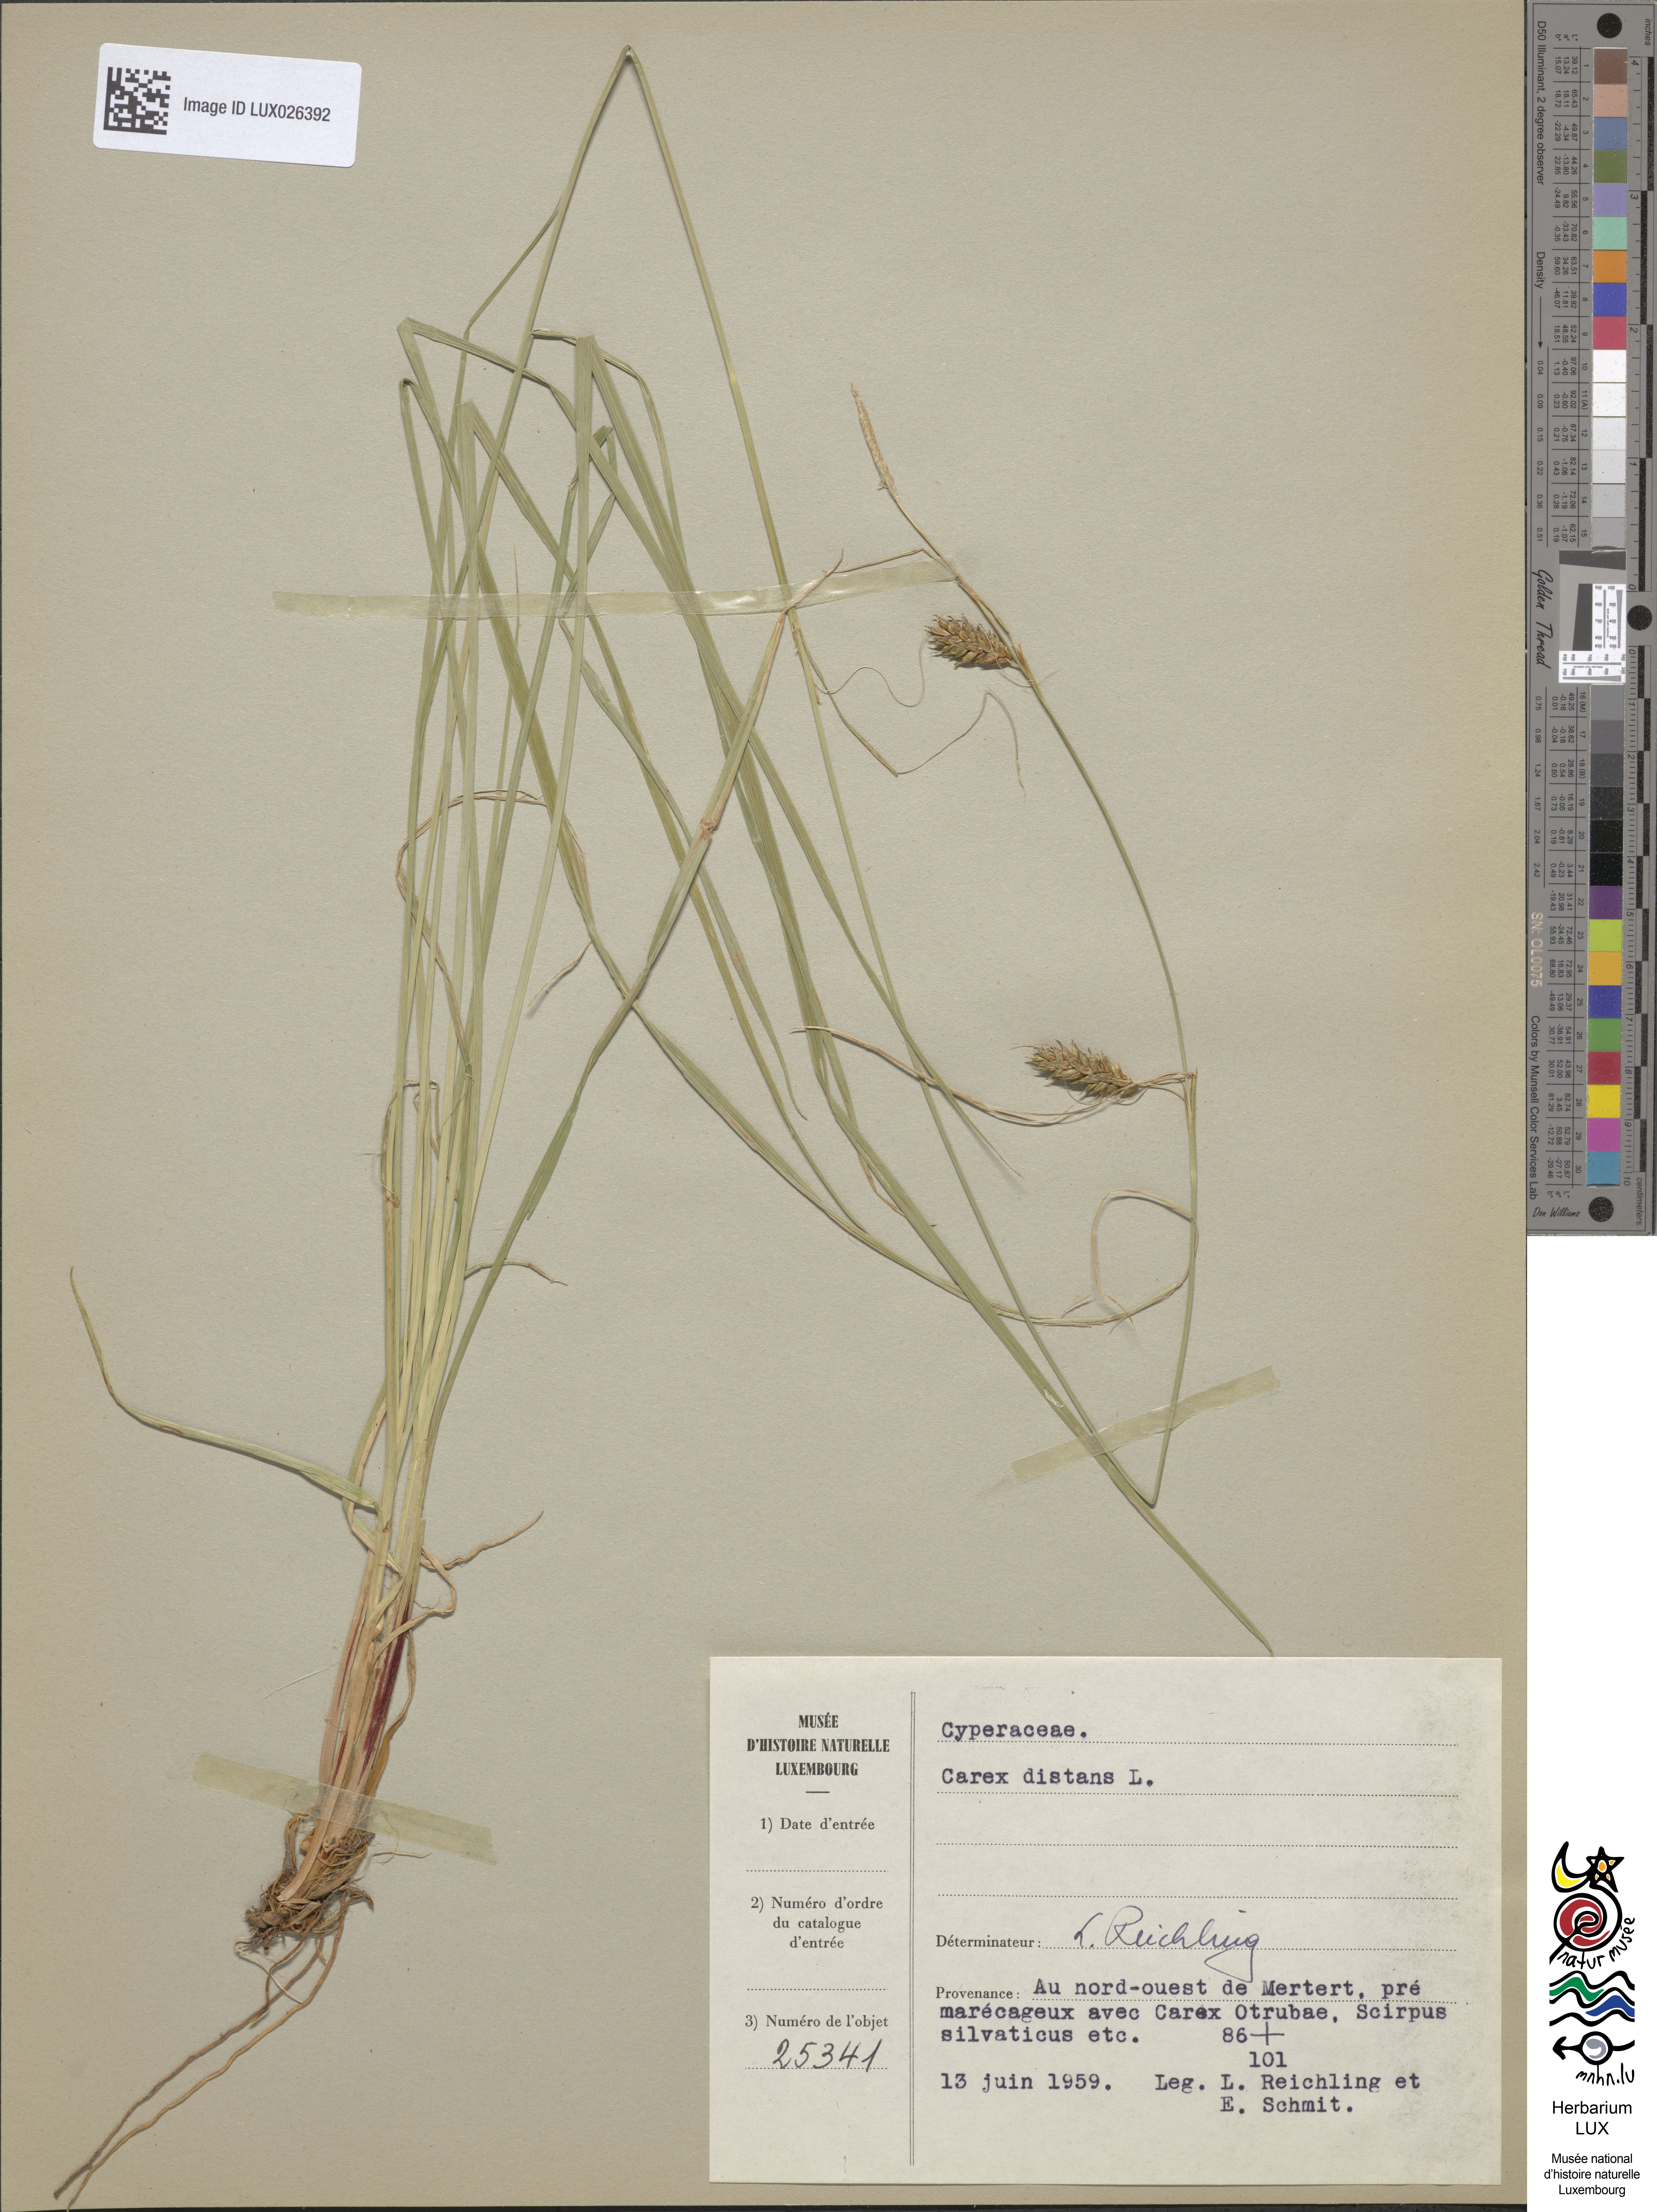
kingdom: Plantae
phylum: Tracheophyta
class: Liliopsida
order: Poales
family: Cyperaceae
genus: Carex
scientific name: Carex distans
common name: Distant sedge
